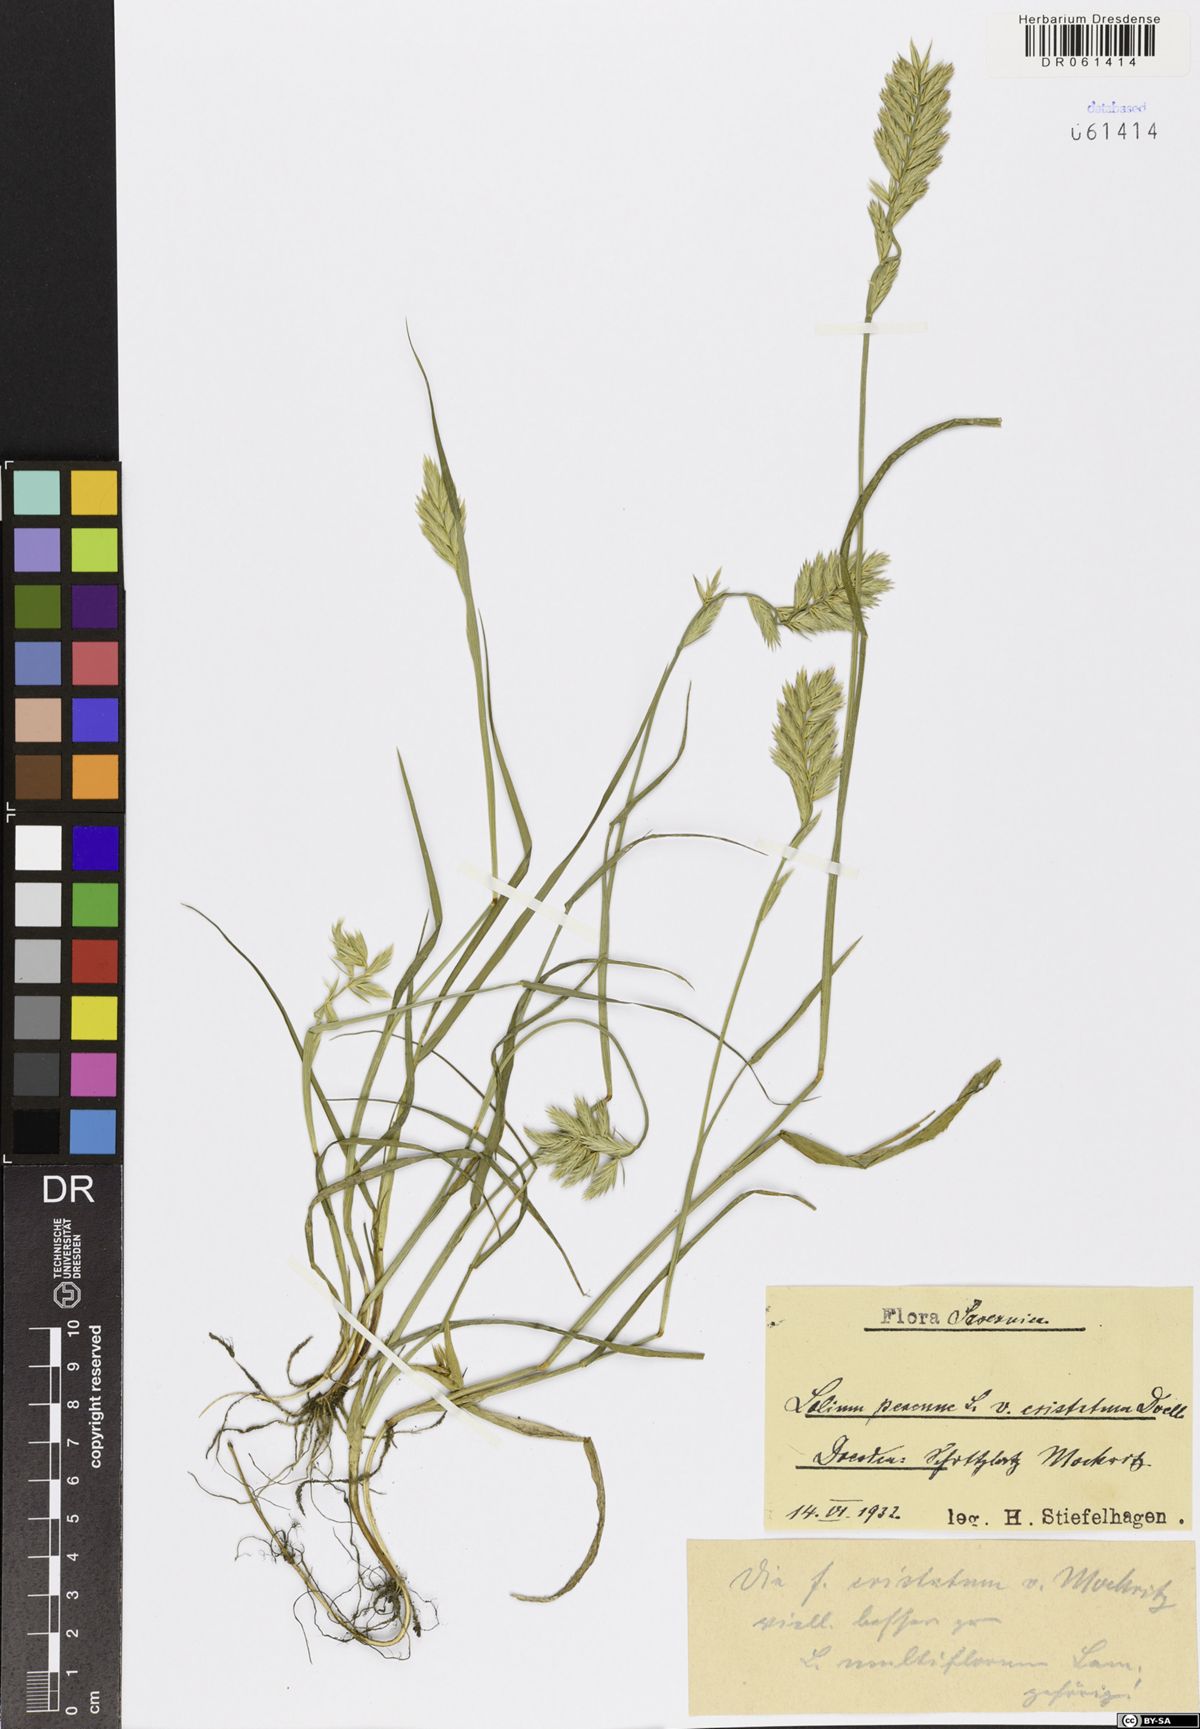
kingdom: Plantae
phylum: Tracheophyta
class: Liliopsida
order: Poales
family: Poaceae
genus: Lolium
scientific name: Lolium perenne
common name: Perennial ryegrass
